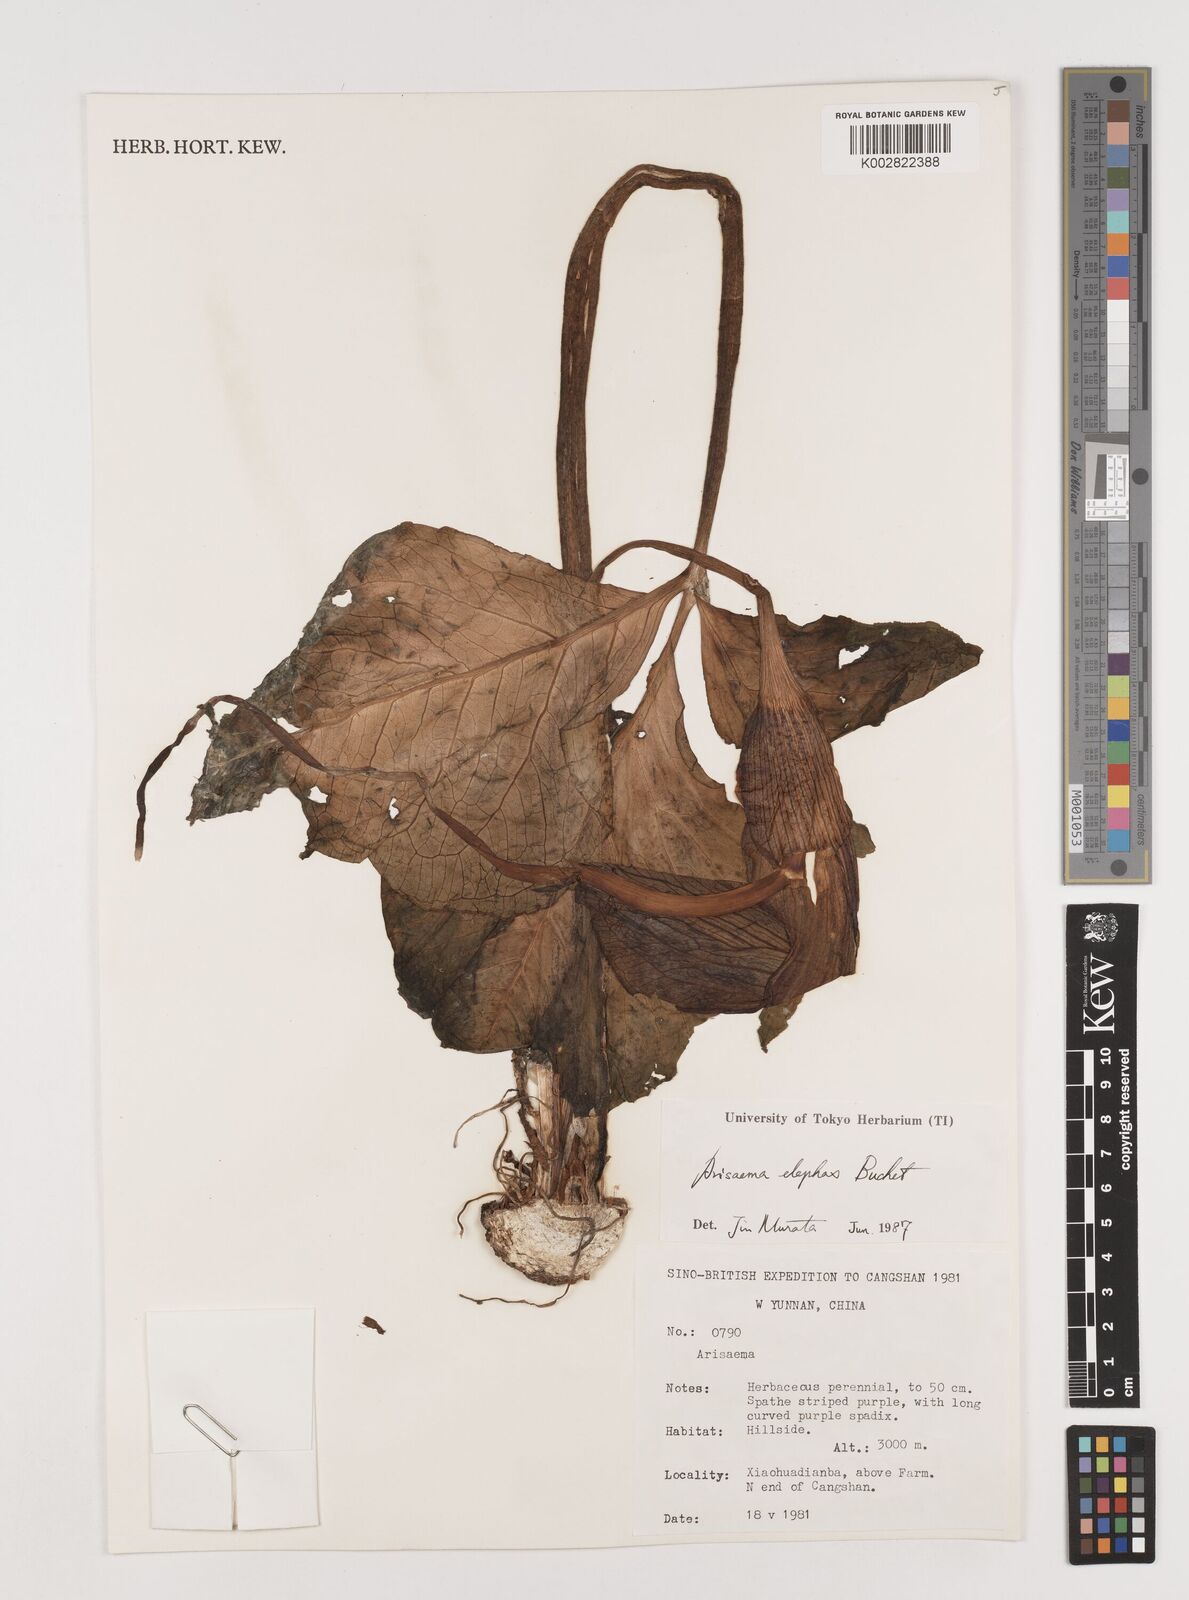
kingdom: Plantae
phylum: Tracheophyta
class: Liliopsida
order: Alismatales
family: Araceae
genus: Arisaema
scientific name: Arisaema elephas
